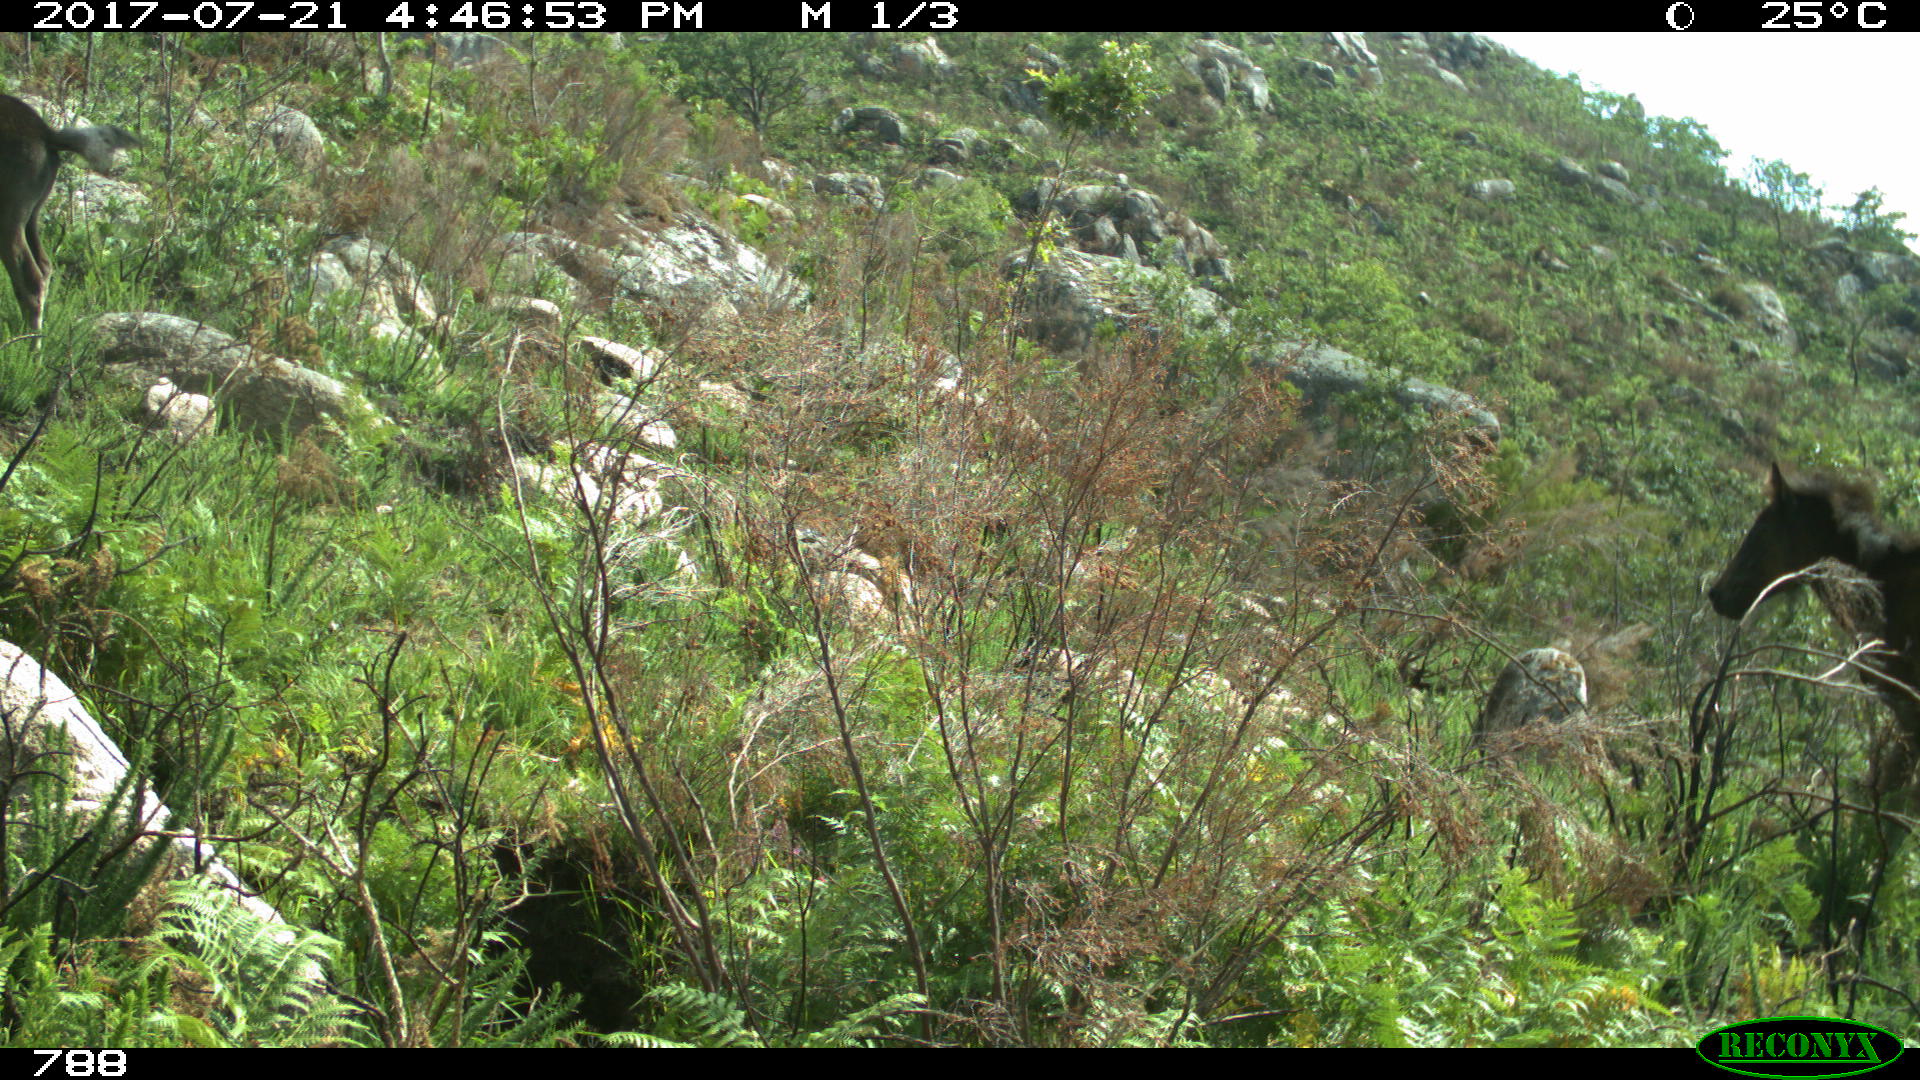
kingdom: Animalia
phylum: Chordata
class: Mammalia
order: Perissodactyla
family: Equidae
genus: Equus
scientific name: Equus caballus
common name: Horse
